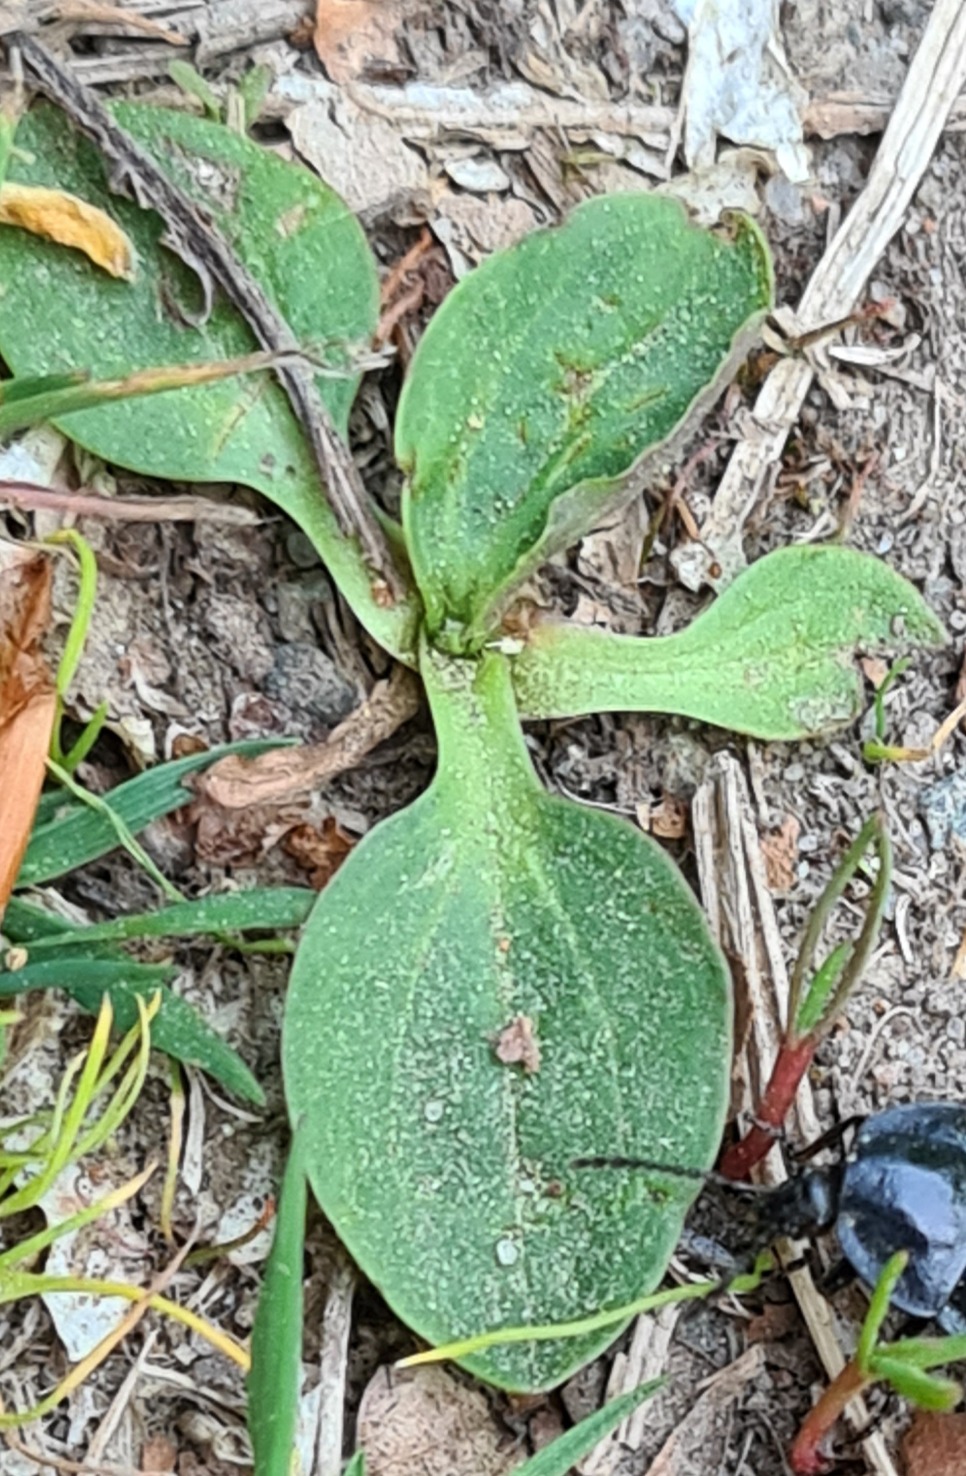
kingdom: Plantae
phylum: Tracheophyta
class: Magnoliopsida
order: Lamiales
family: Plantaginaceae
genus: Plantago
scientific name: Plantago major
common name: Glat vejbred
